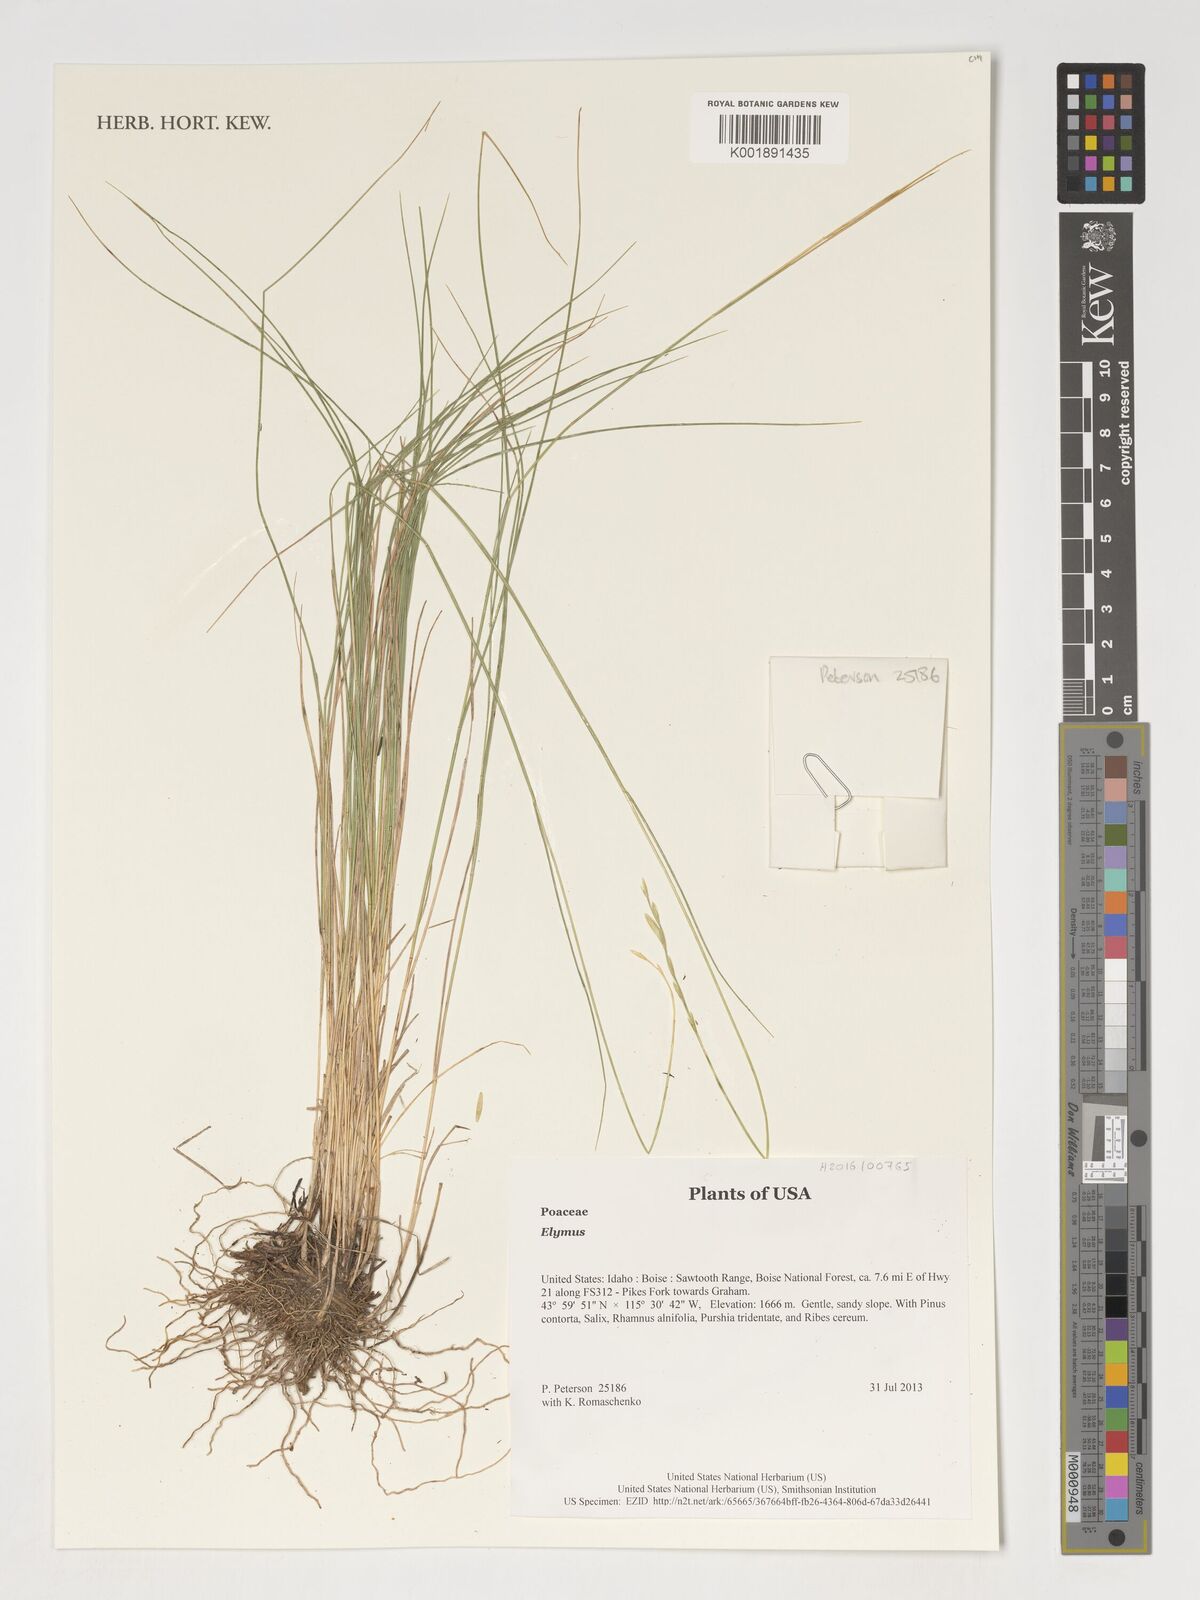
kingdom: Plantae
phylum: Tracheophyta
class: Liliopsida
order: Poales
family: Poaceae
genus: Elymus
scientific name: Elymus
